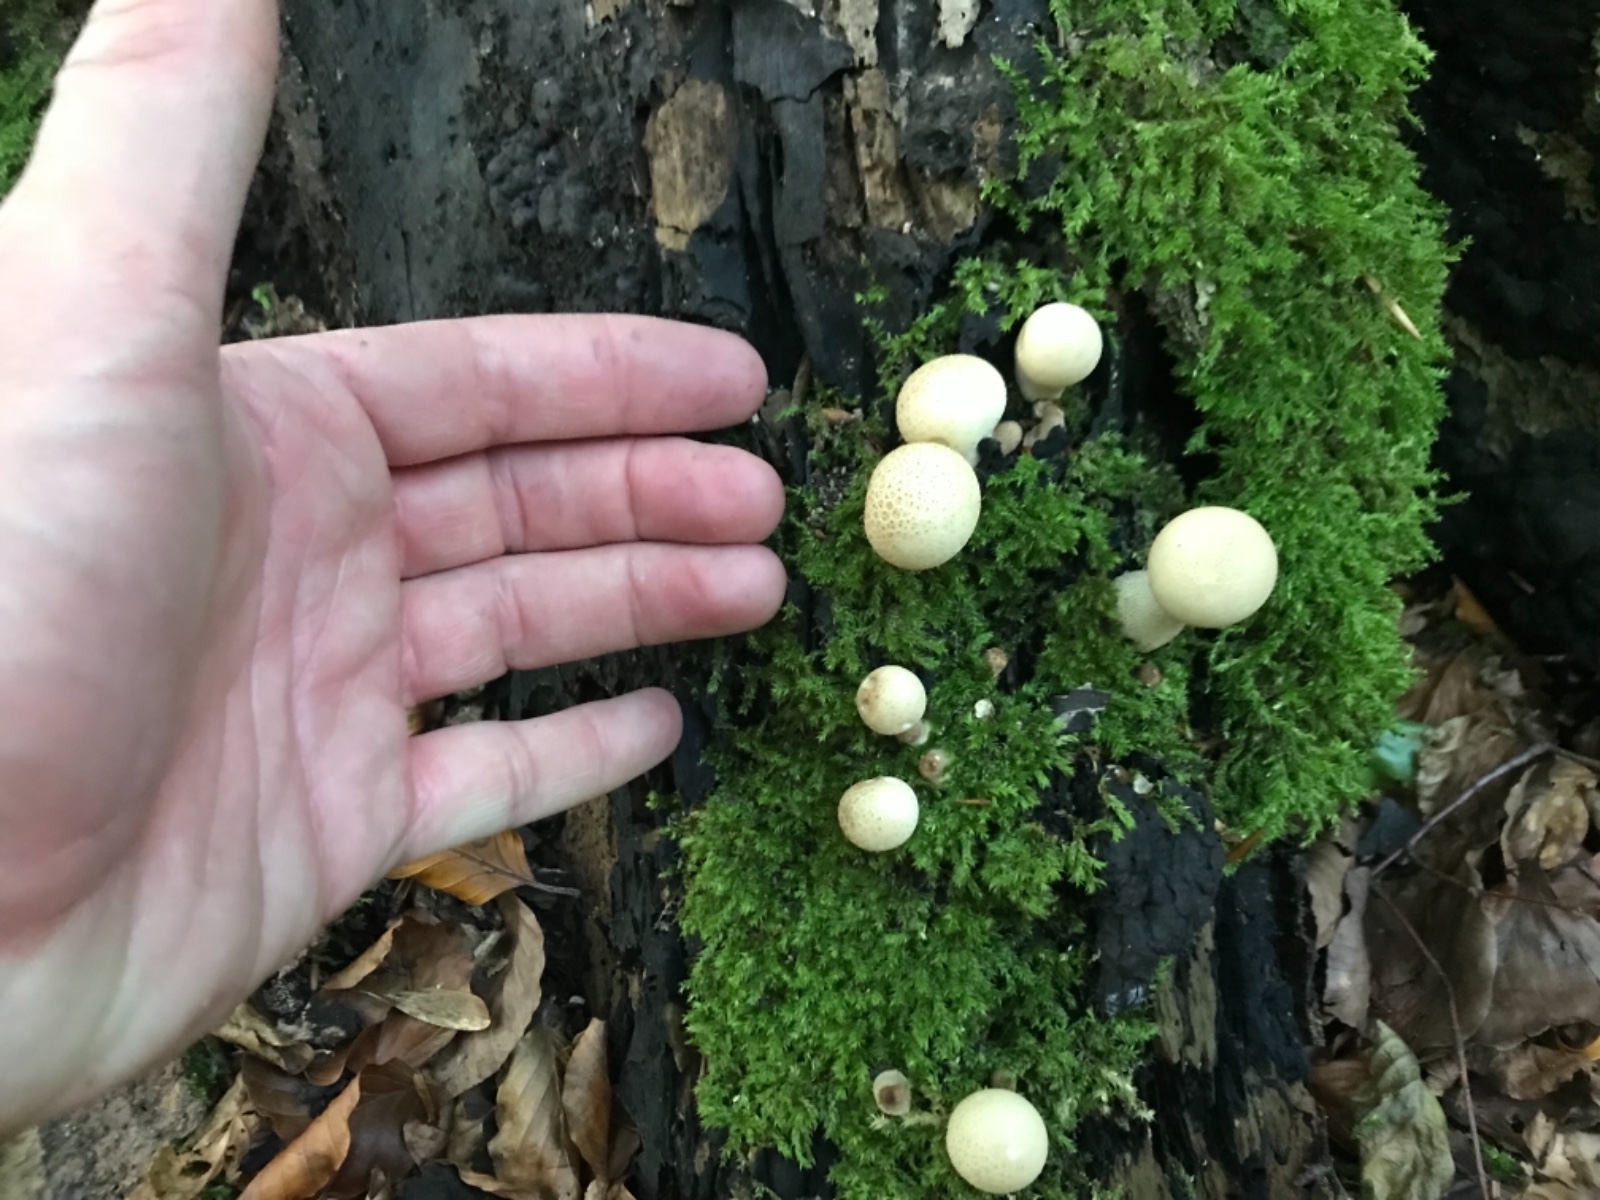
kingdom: Fungi
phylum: Basidiomycota
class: Agaricomycetes
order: Agaricales
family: Lycoperdaceae
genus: Apioperdon
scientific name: Apioperdon pyriforme
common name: pære-støvbold
